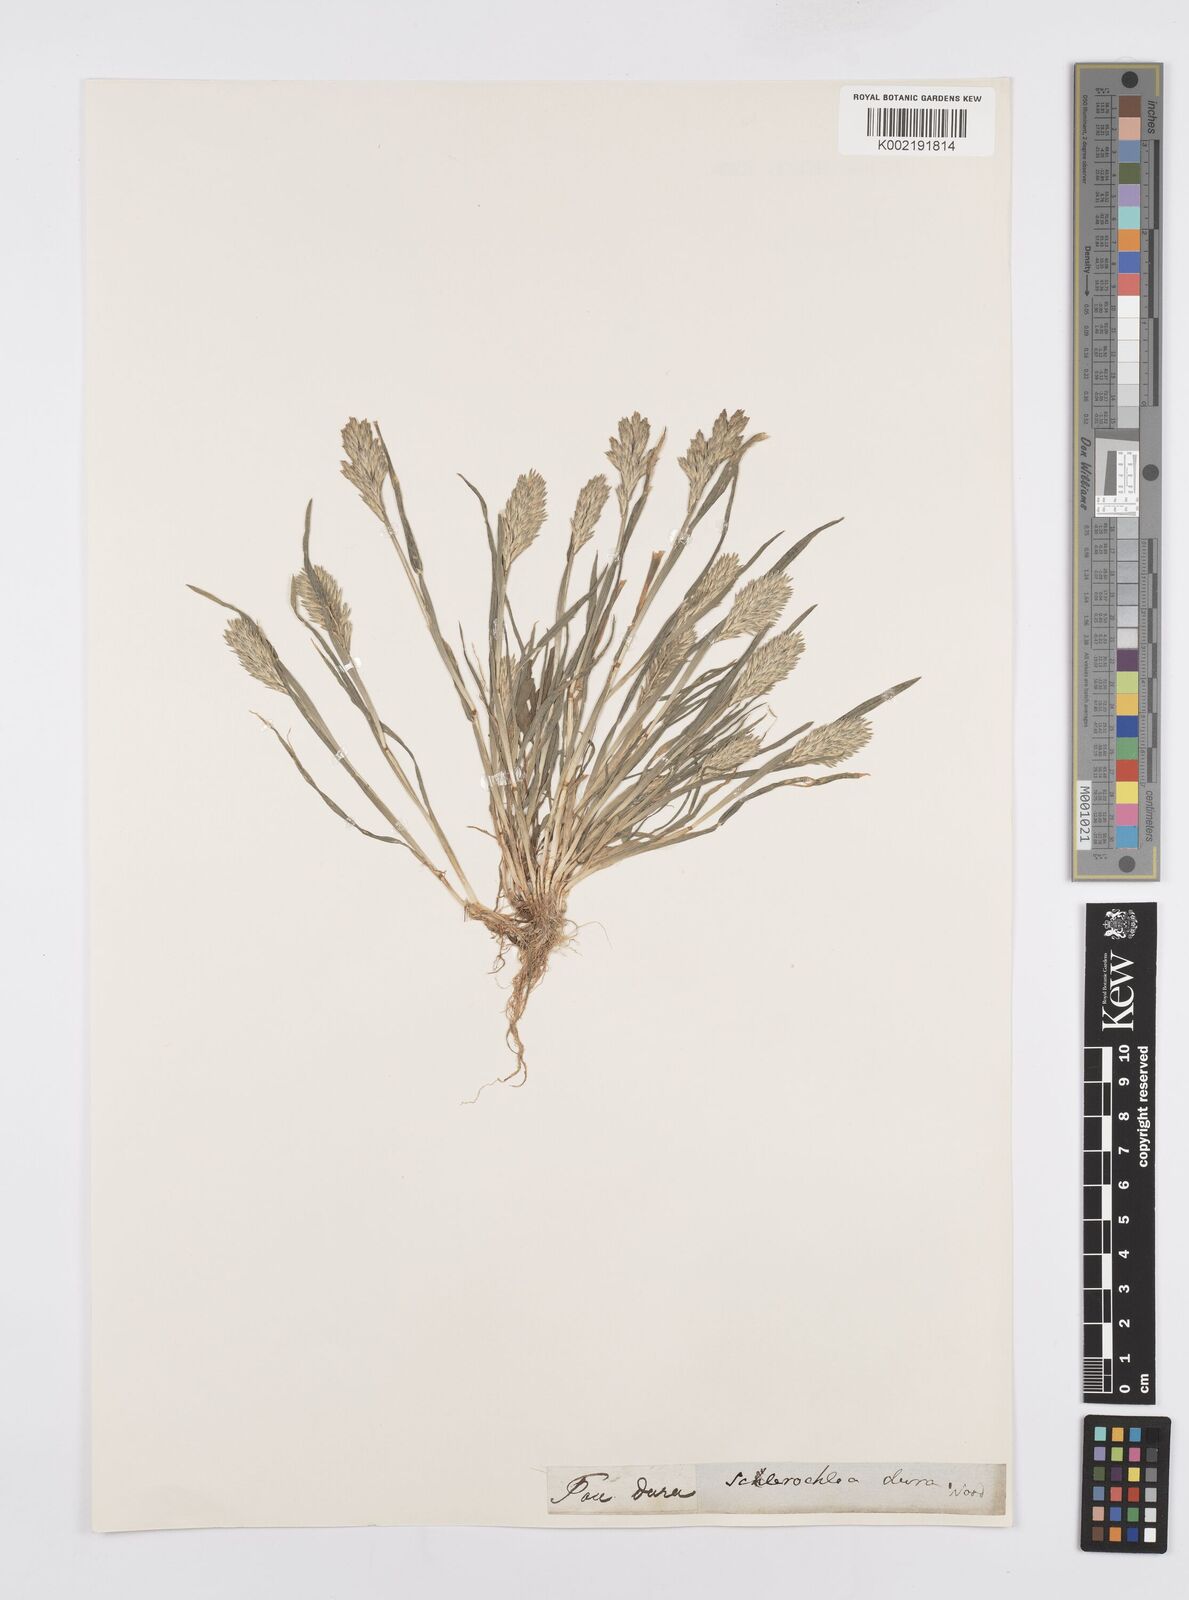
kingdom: Plantae
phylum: Tracheophyta
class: Liliopsida
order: Poales
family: Poaceae
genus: Sclerochloa
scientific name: Sclerochloa dura
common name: Common hardgrass
